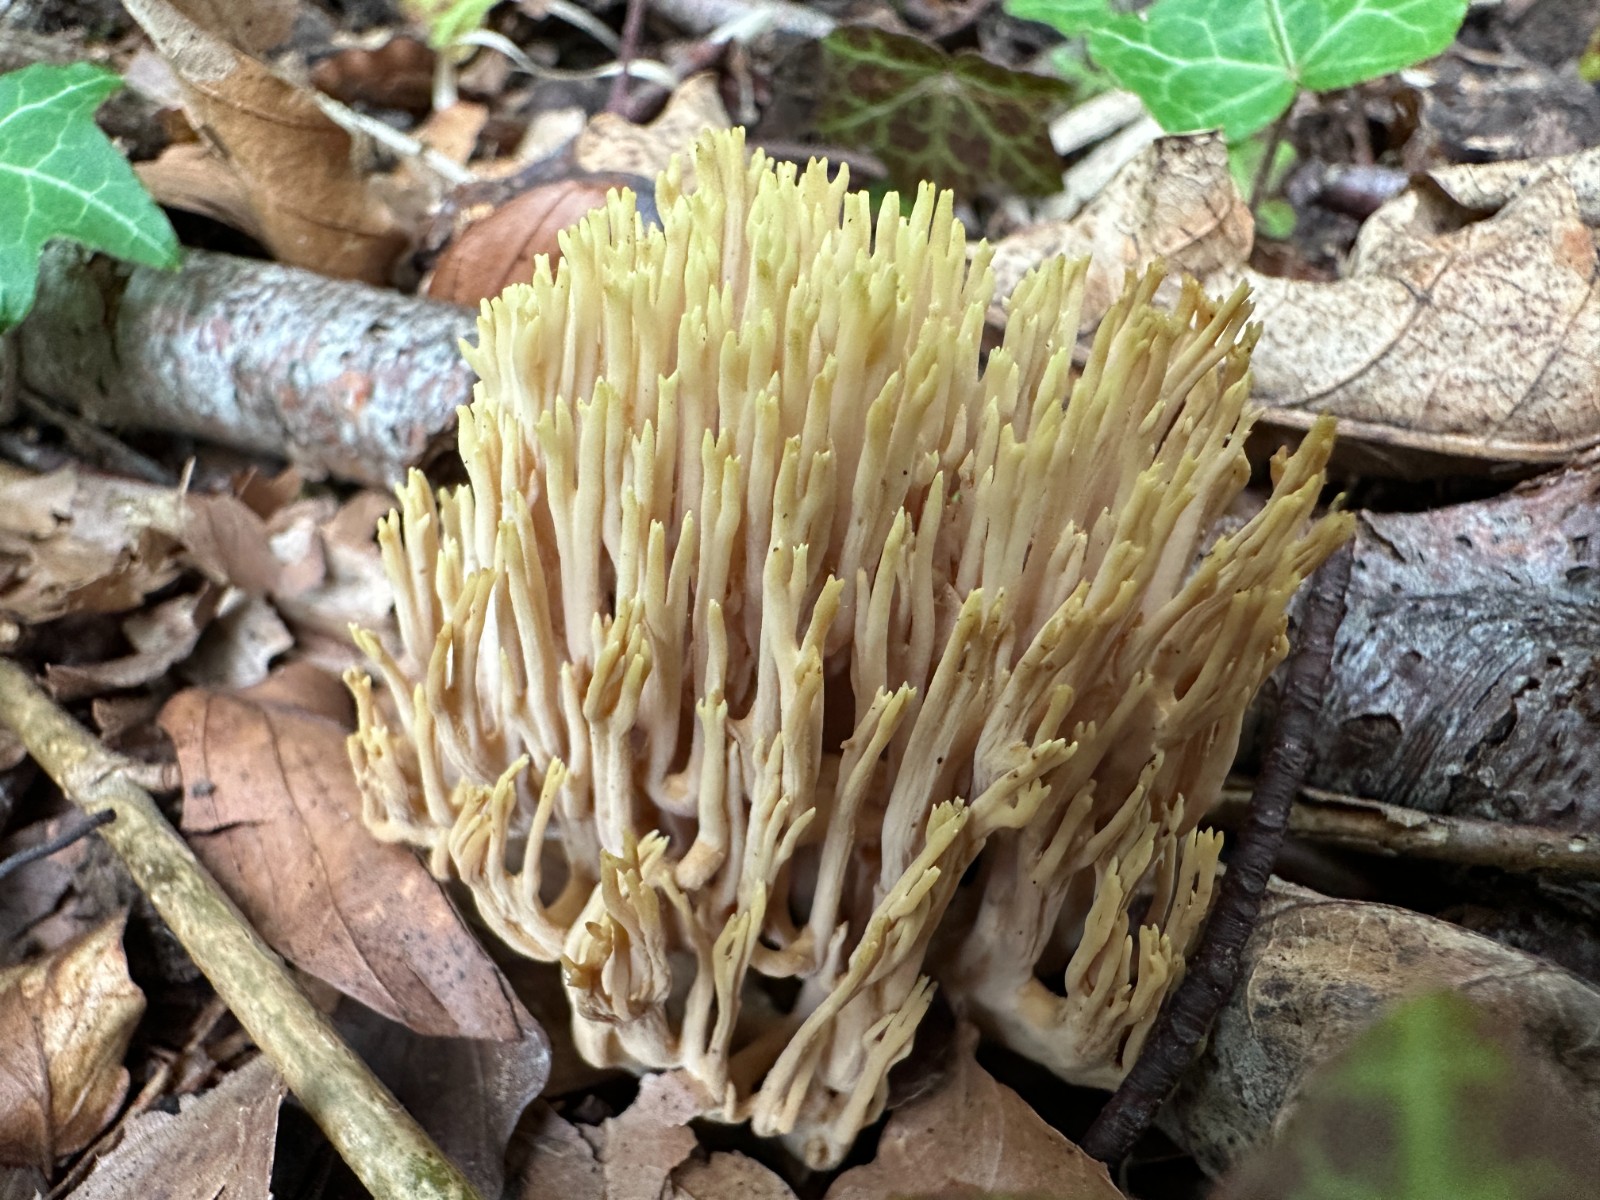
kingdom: Fungi
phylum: Basidiomycota
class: Agaricomycetes
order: Gomphales
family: Gomphaceae
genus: Ramaria
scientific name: Ramaria stricta
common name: rank koralsvamp
